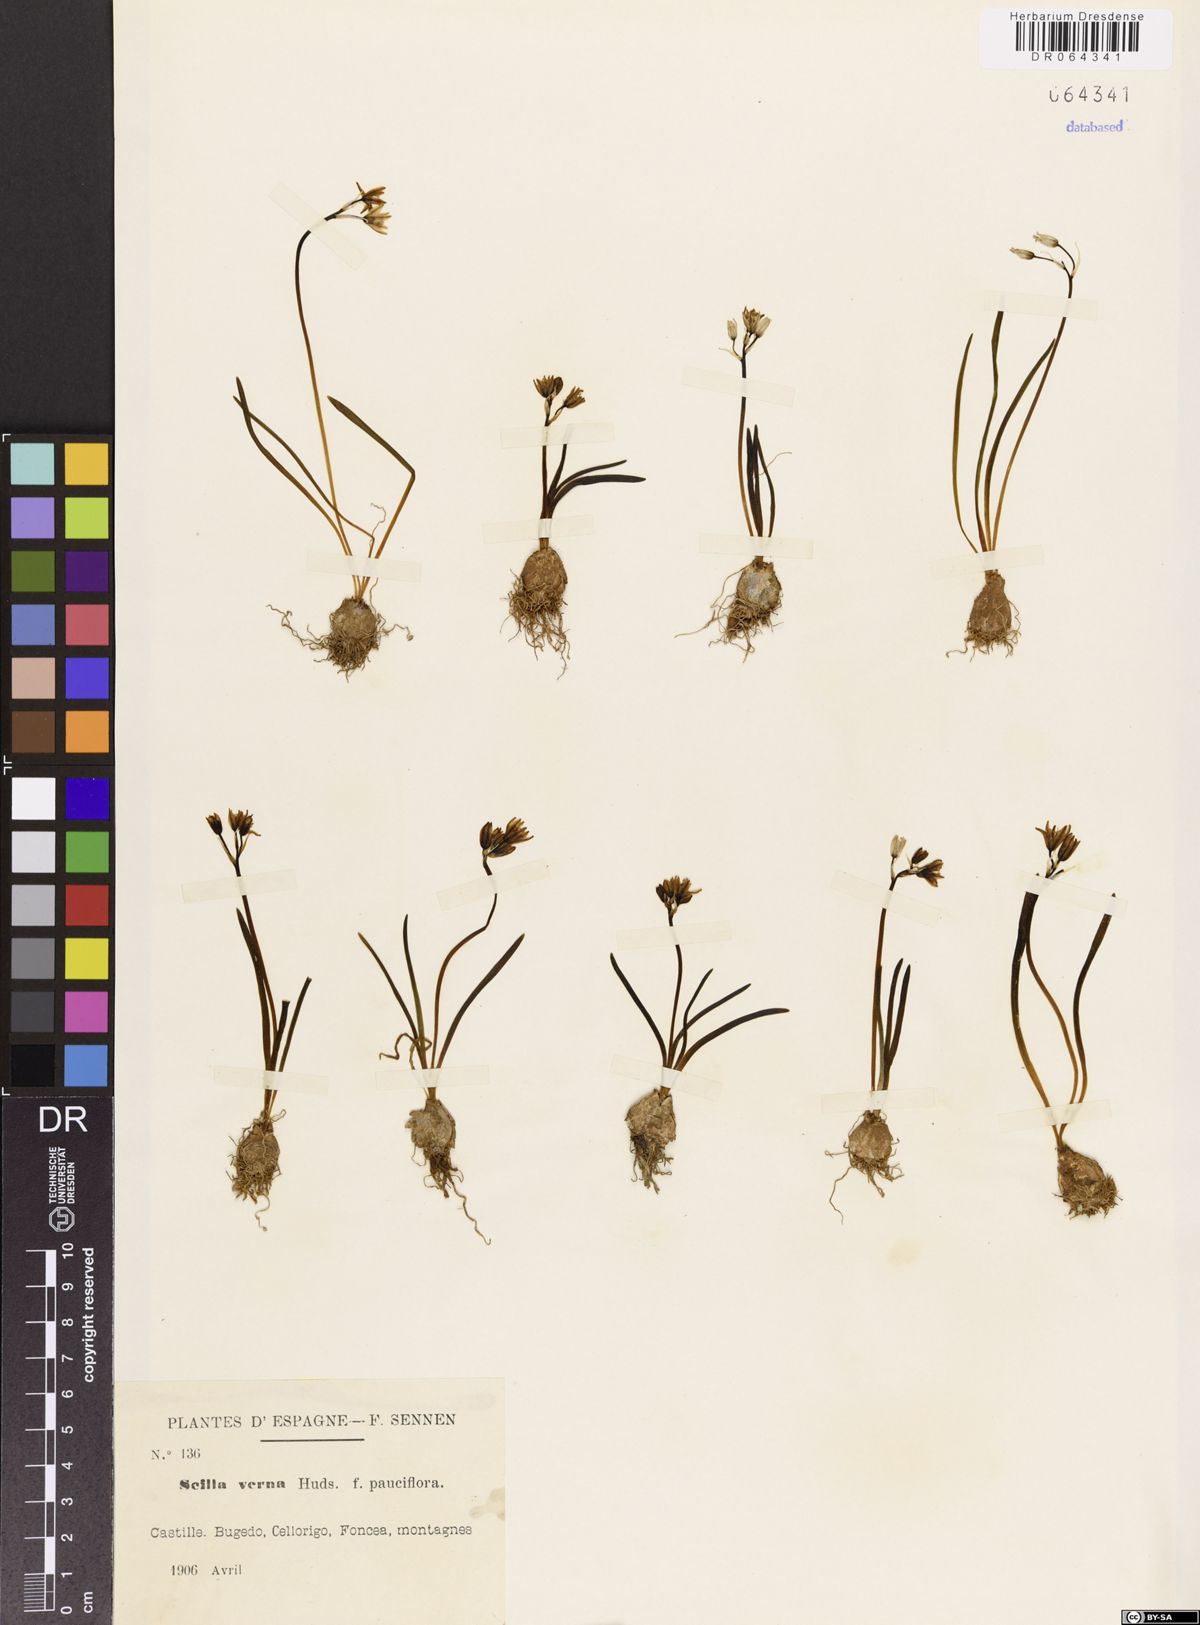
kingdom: Plantae
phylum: Tracheophyta
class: Liliopsida
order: Asparagales
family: Asparagaceae
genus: Scilla
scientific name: Scilla verna
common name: Spring squill
